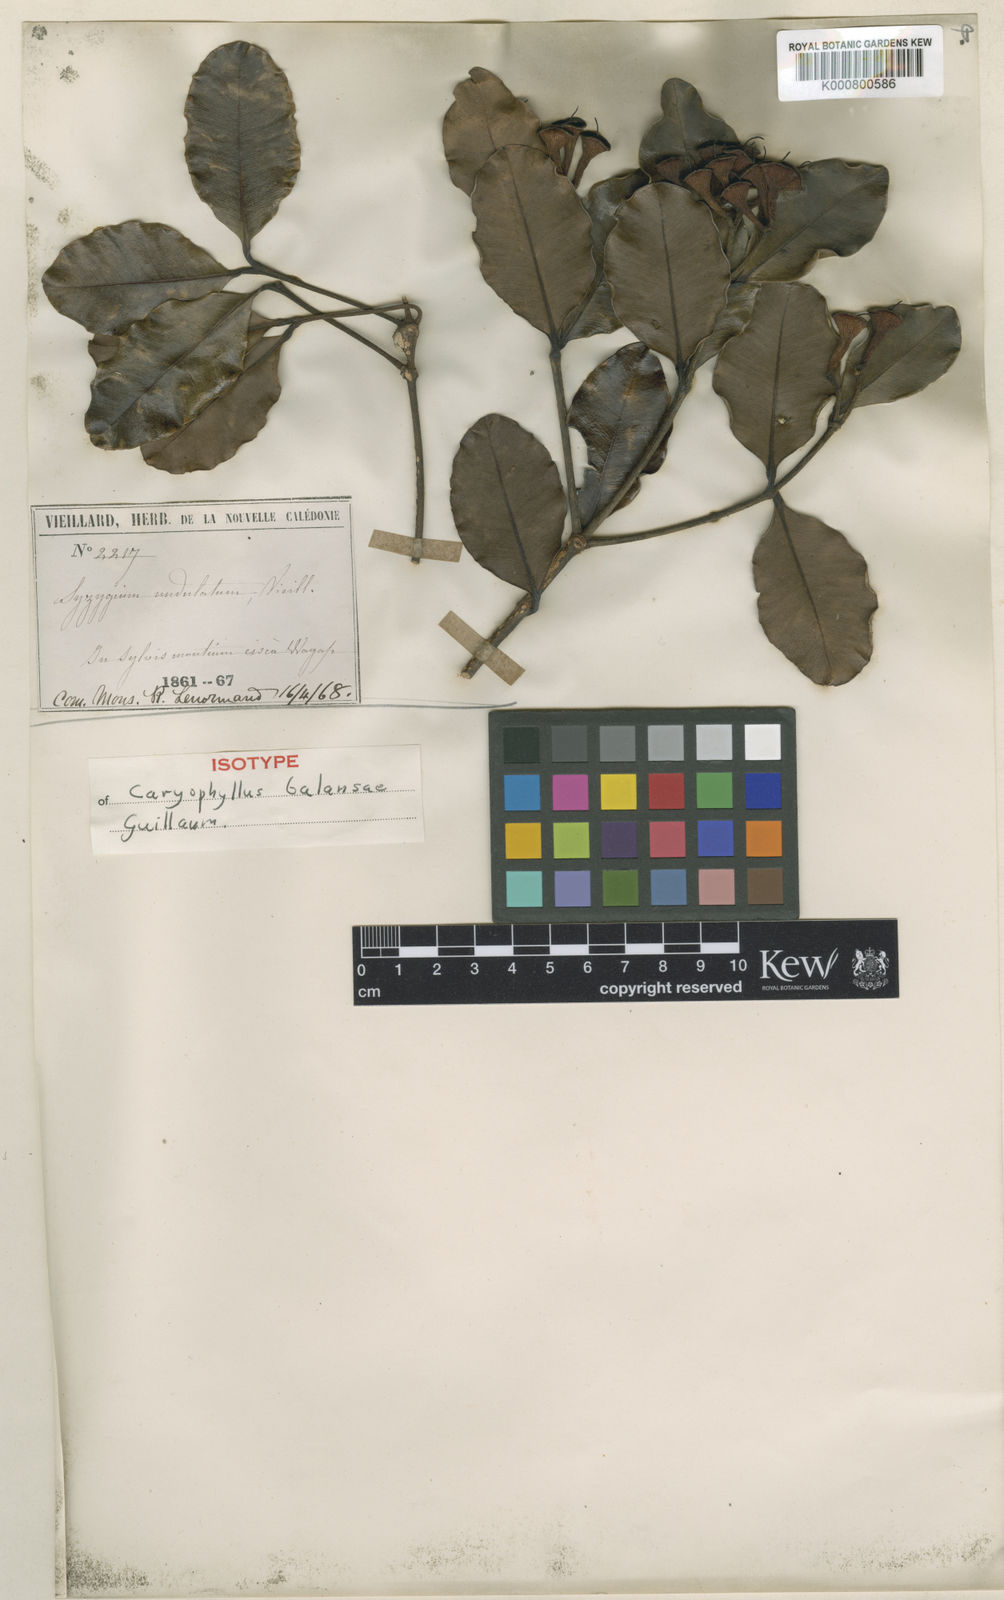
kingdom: Plantae
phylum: Tracheophyta
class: Magnoliopsida
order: Myrtales
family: Myrtaceae
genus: Syzygium
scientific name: Syzygium balansae
